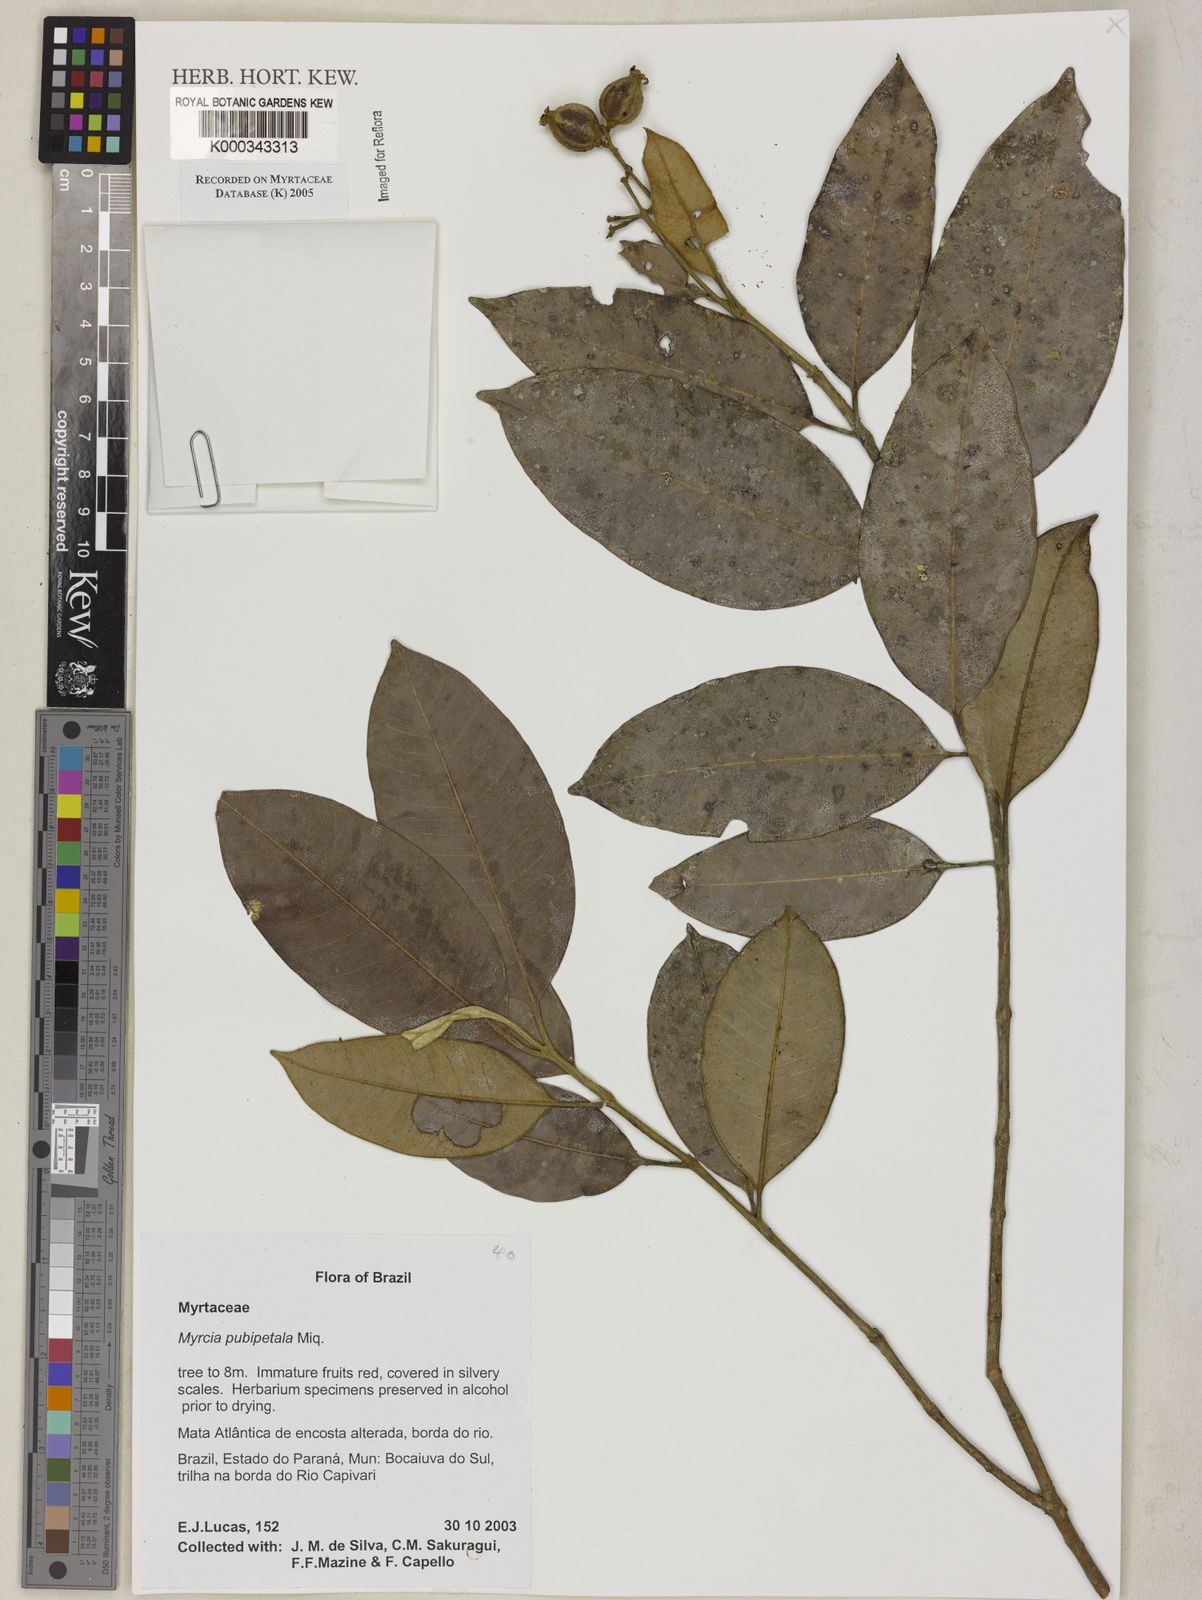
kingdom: Plantae
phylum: Tracheophyta
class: Magnoliopsida
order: Myrtales
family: Myrtaceae
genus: Myrcia
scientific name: Myrcia pubipetala
